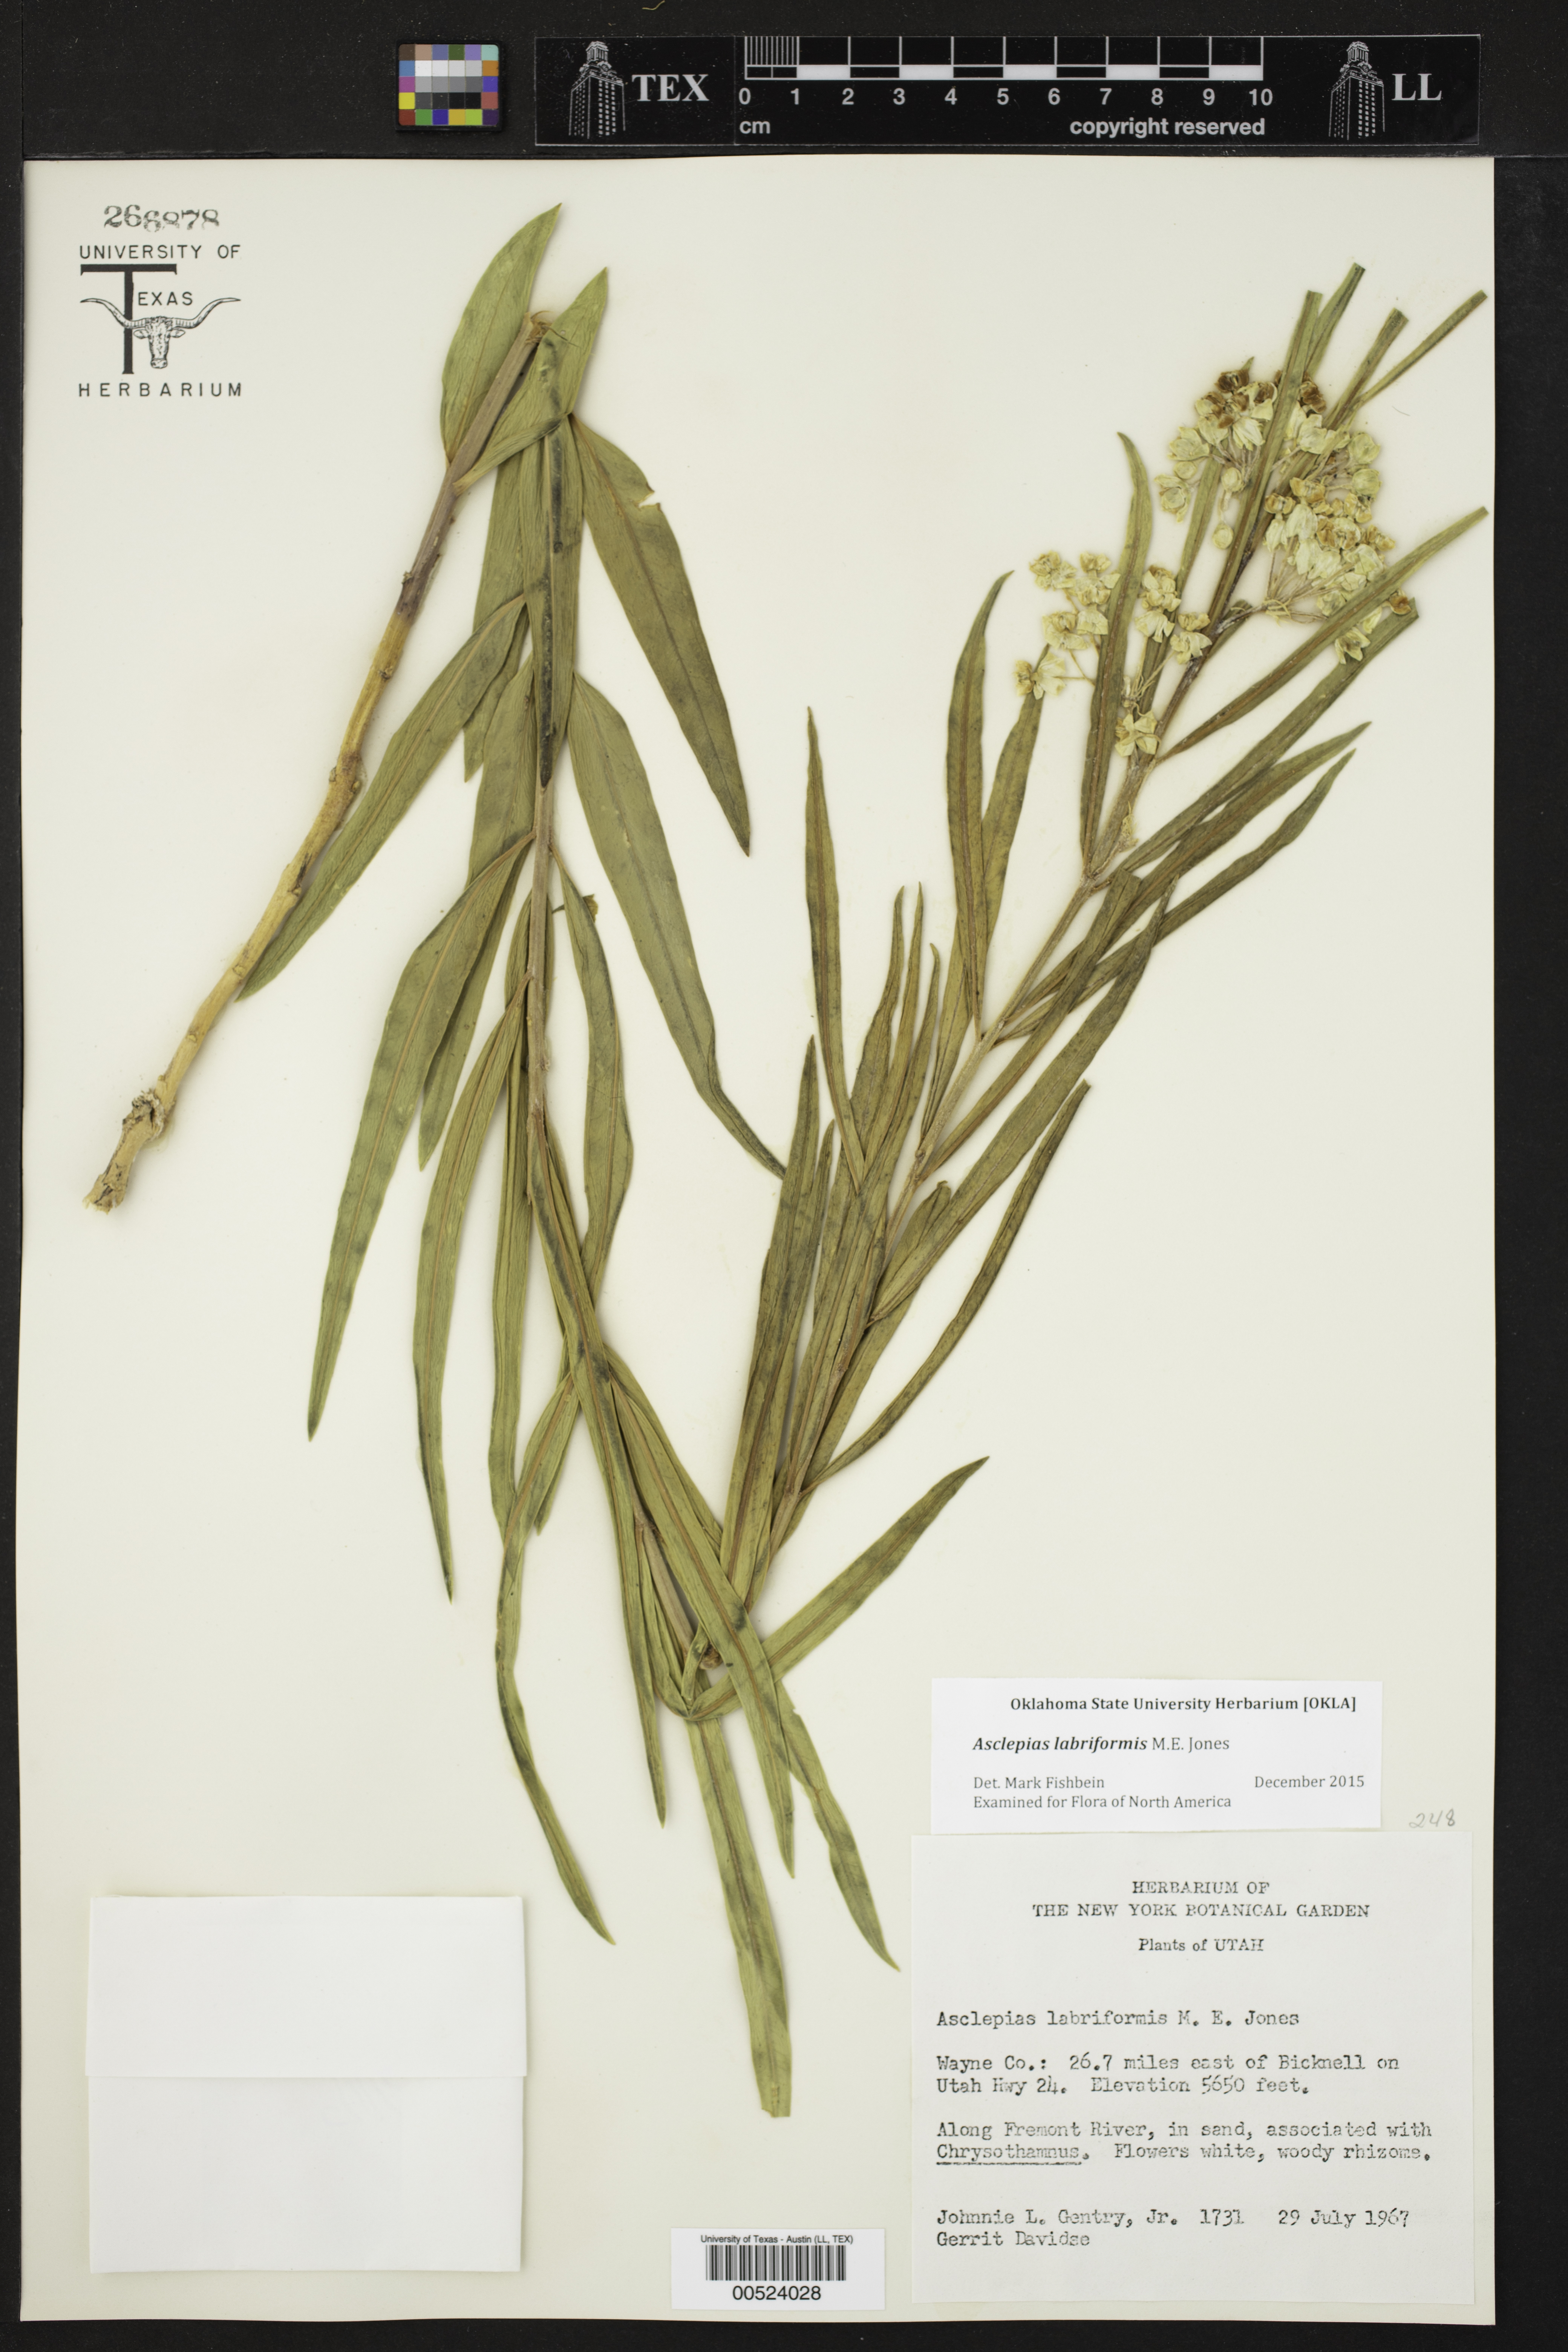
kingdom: Plantae
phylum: Tracheophyta
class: Magnoliopsida
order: Gentianales
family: Apocynaceae
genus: Asclepias
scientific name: Asclepias labriformis
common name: Labriformis milkweed
